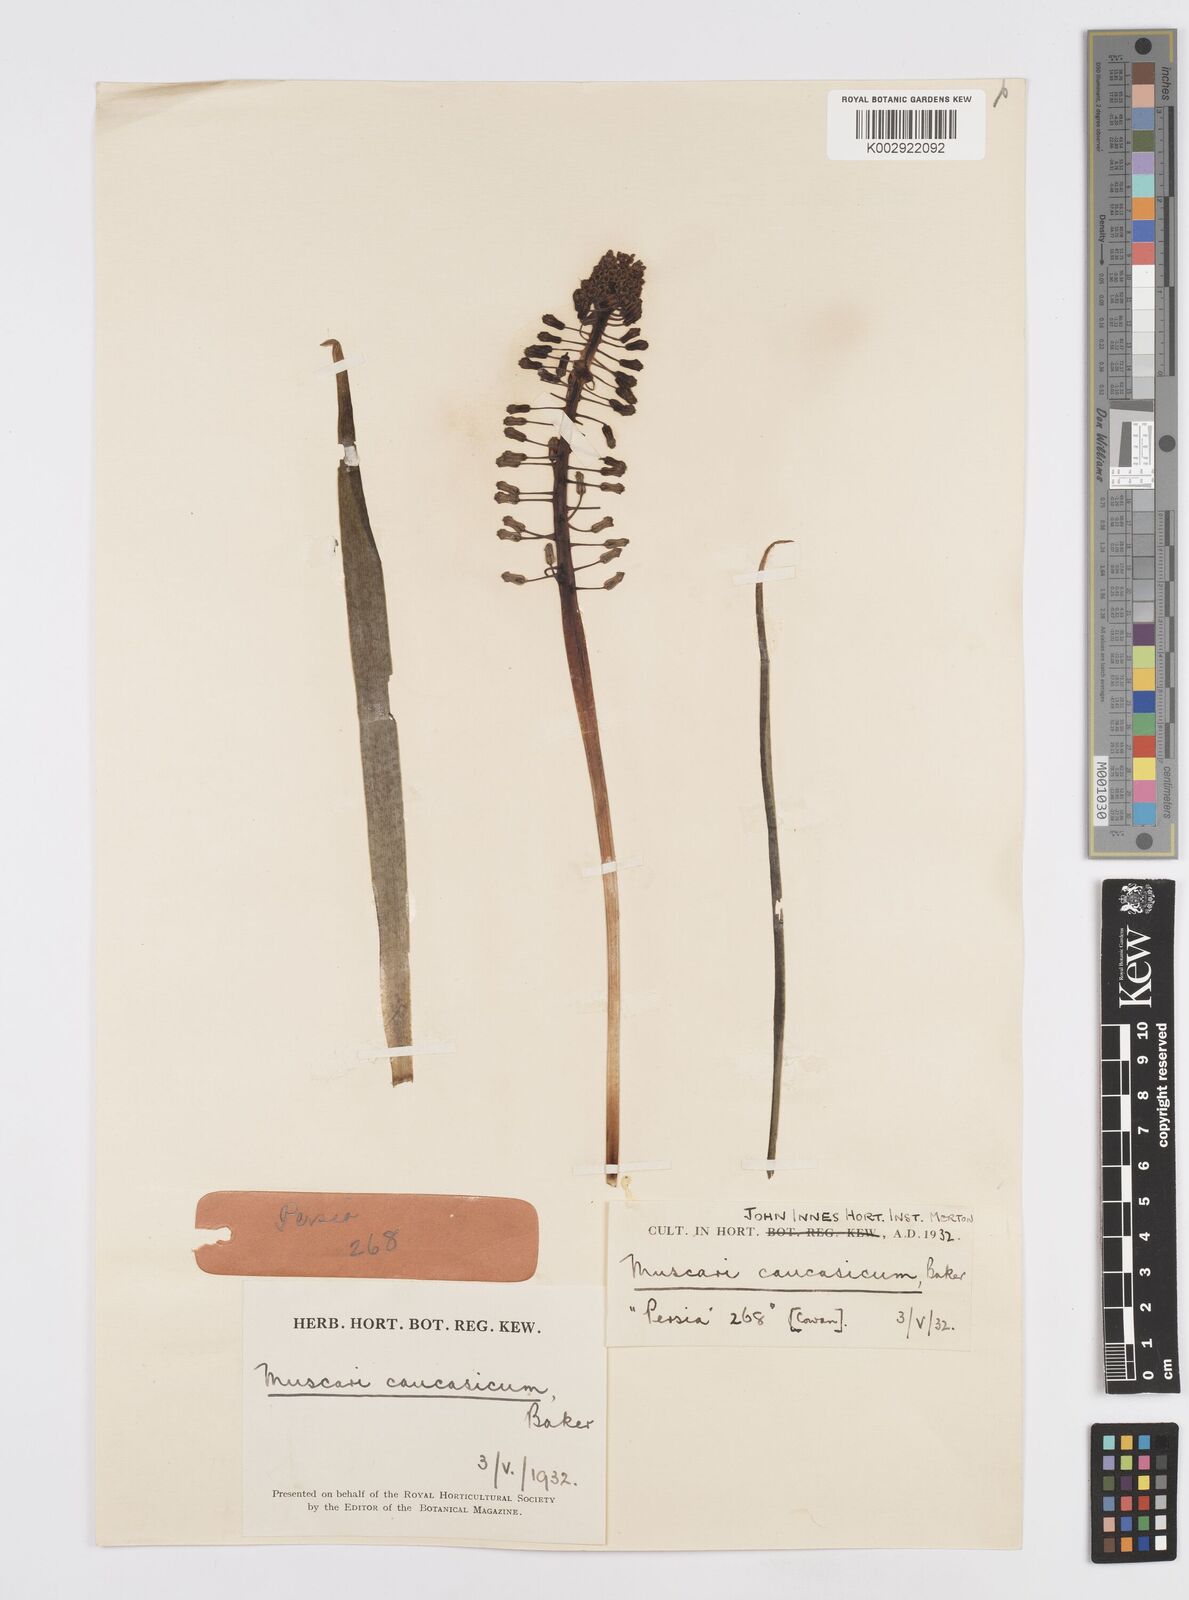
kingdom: Plantae
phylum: Tracheophyta
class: Liliopsida
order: Asparagales
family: Asparagaceae
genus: Muscari
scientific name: Muscari caucasicum
